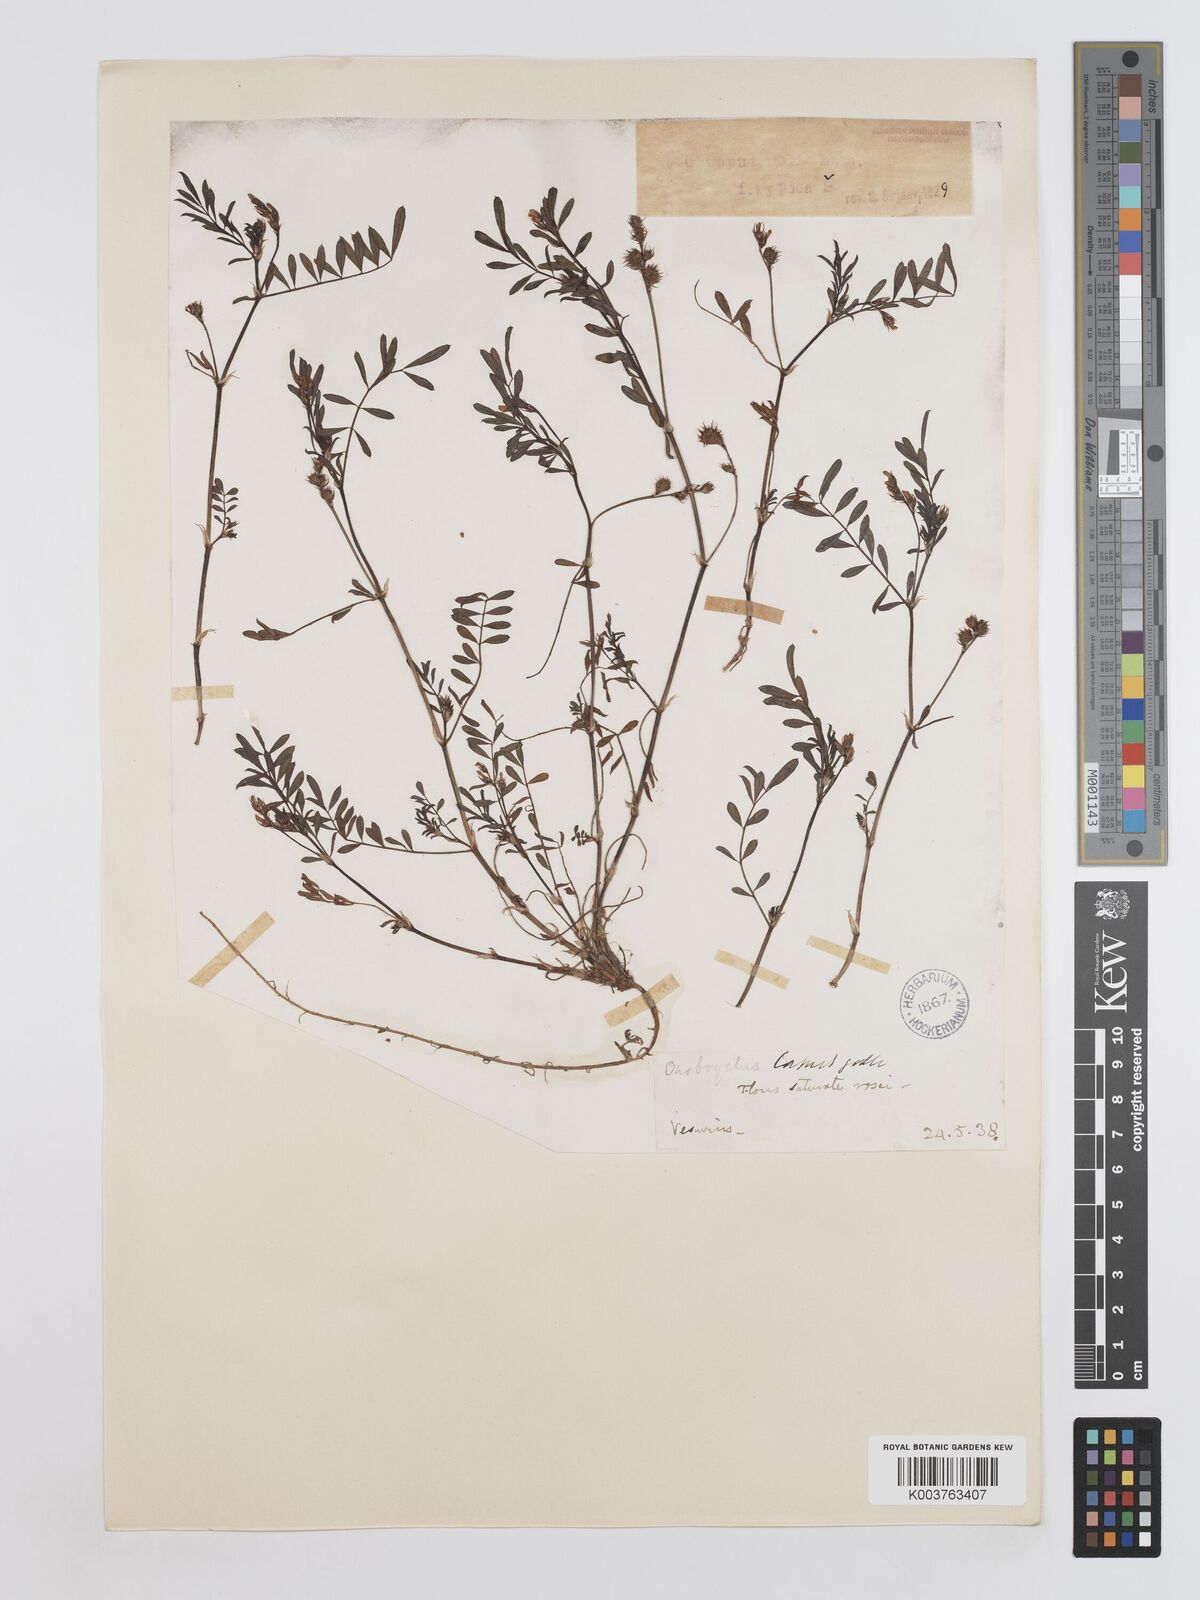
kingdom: Plantae
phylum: Tracheophyta
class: Magnoliopsida
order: Fabales
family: Fabaceae
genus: Onobrychis
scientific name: Onobrychis caput-galli
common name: Cockscomb sainfoin
